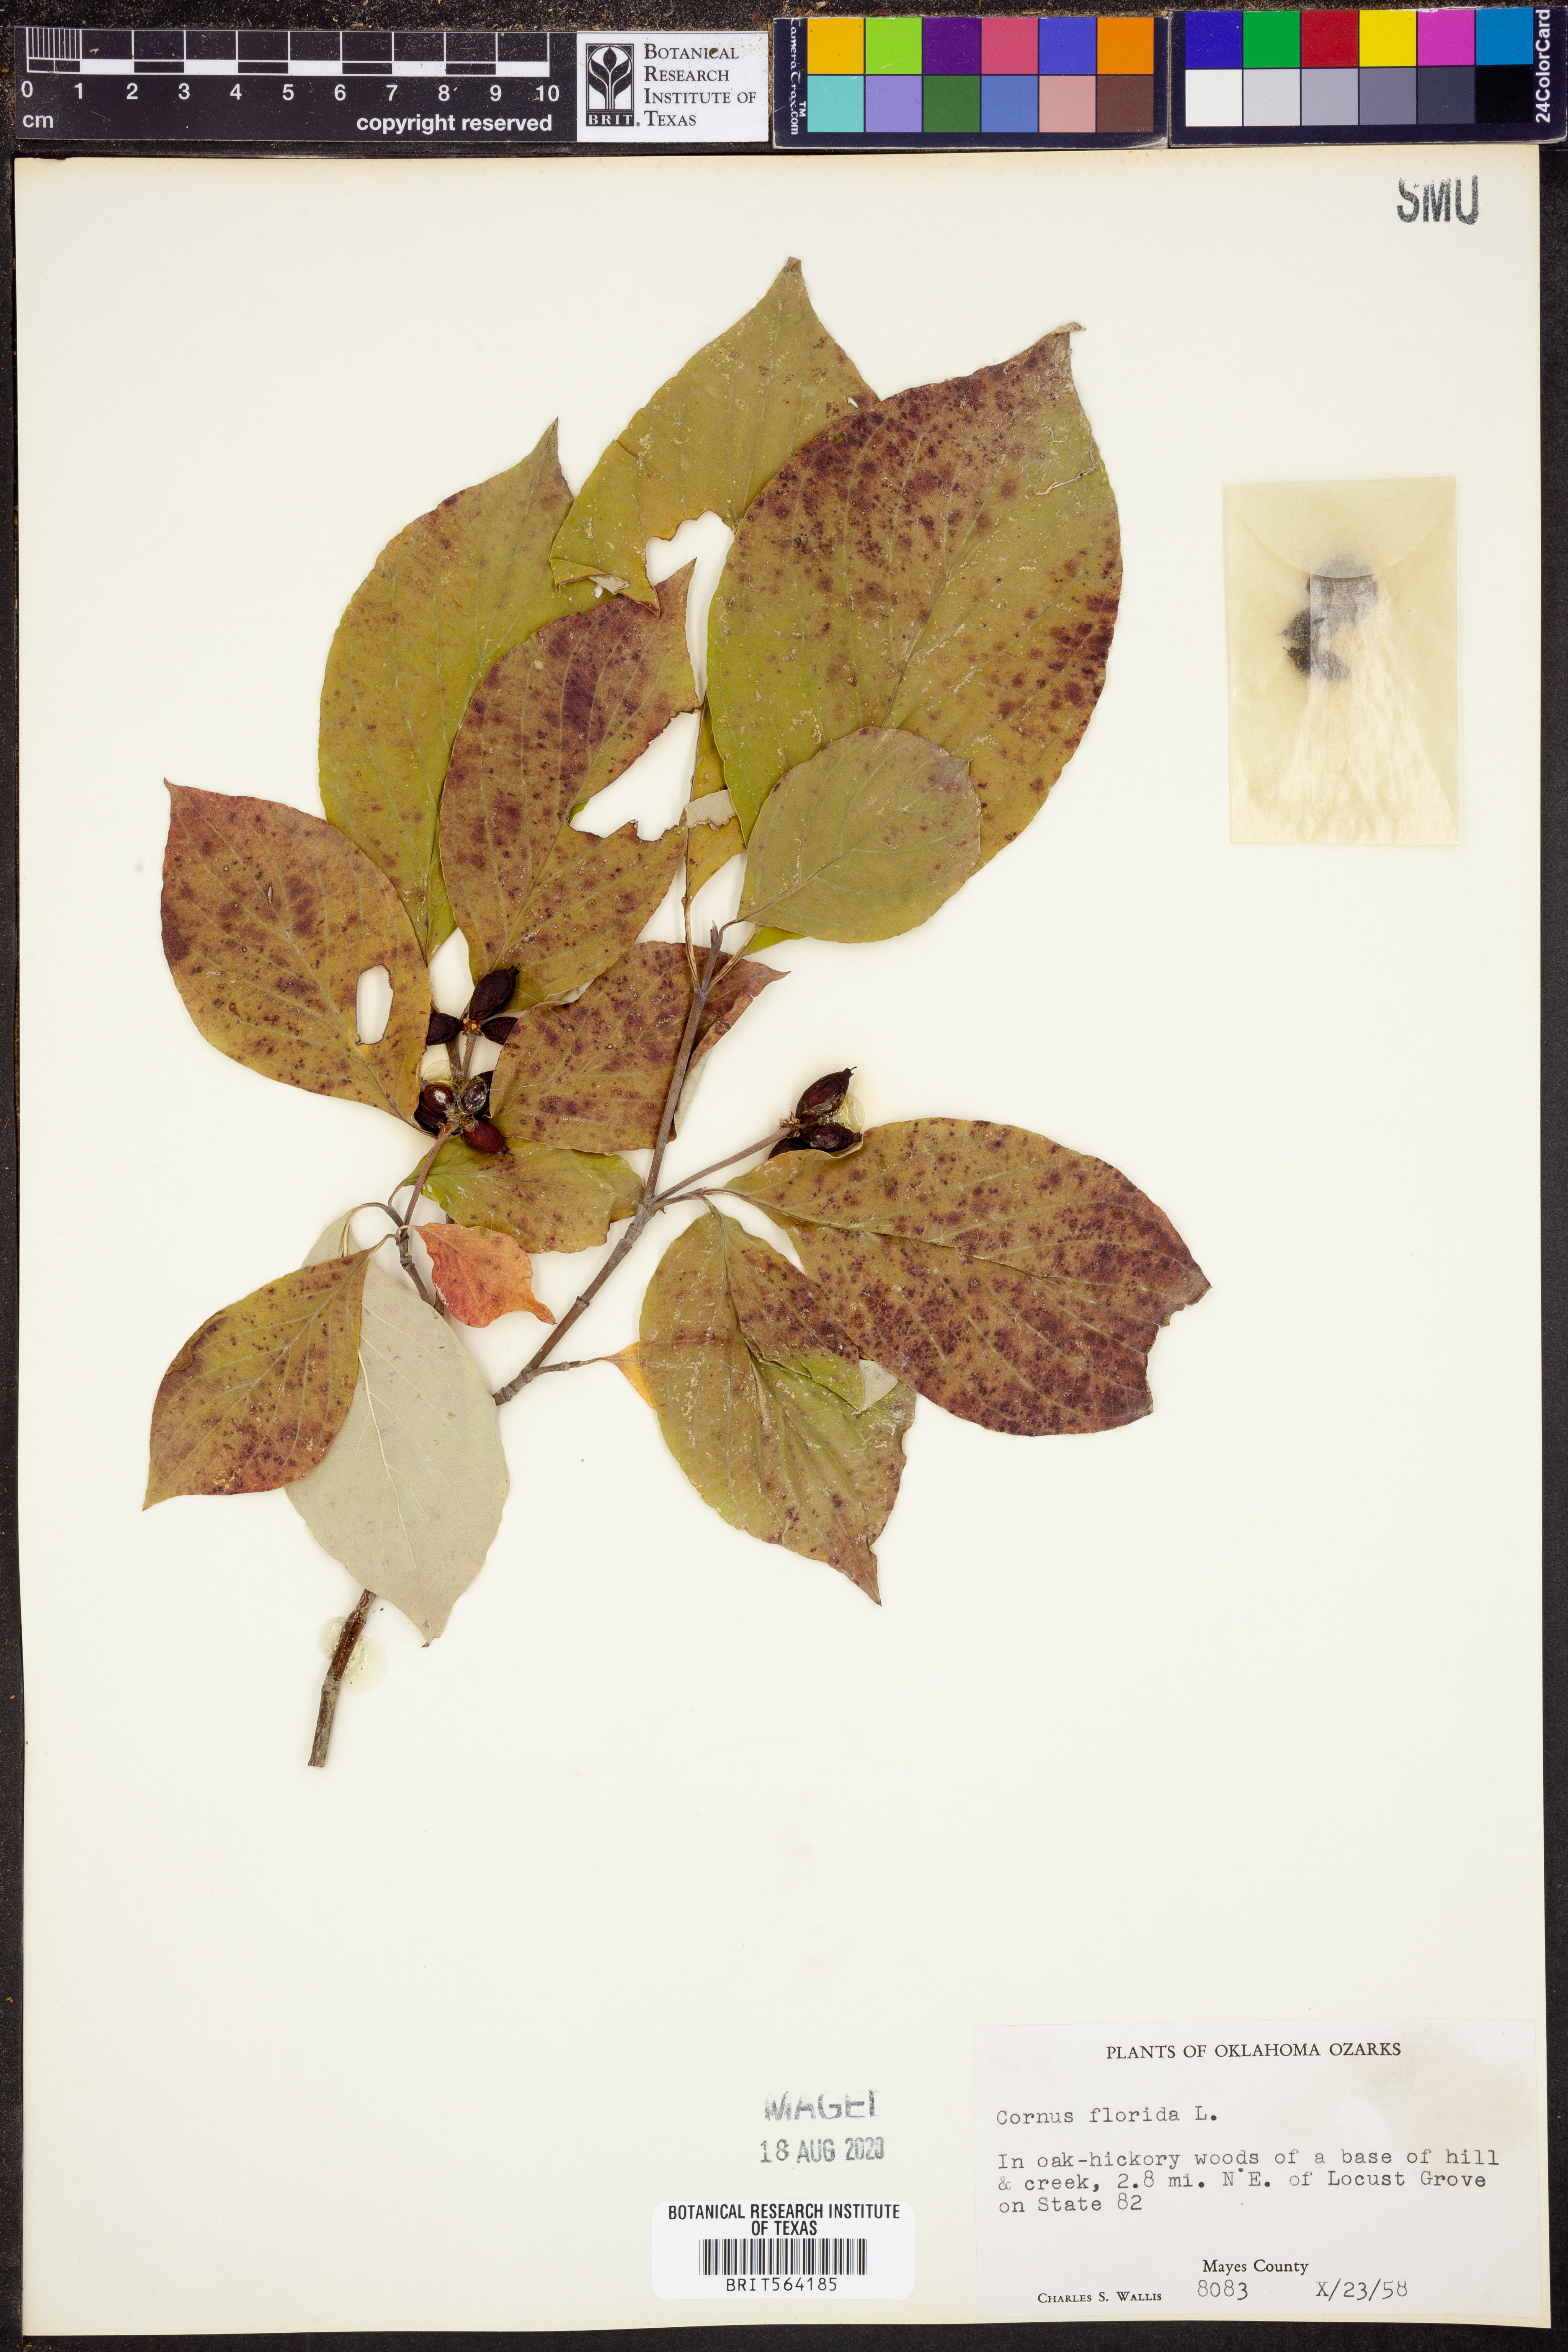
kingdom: Plantae
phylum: Tracheophyta
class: Magnoliopsida
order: Cornales
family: Cornaceae
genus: Cornus
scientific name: Cornus florida
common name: Flowering dogwood
